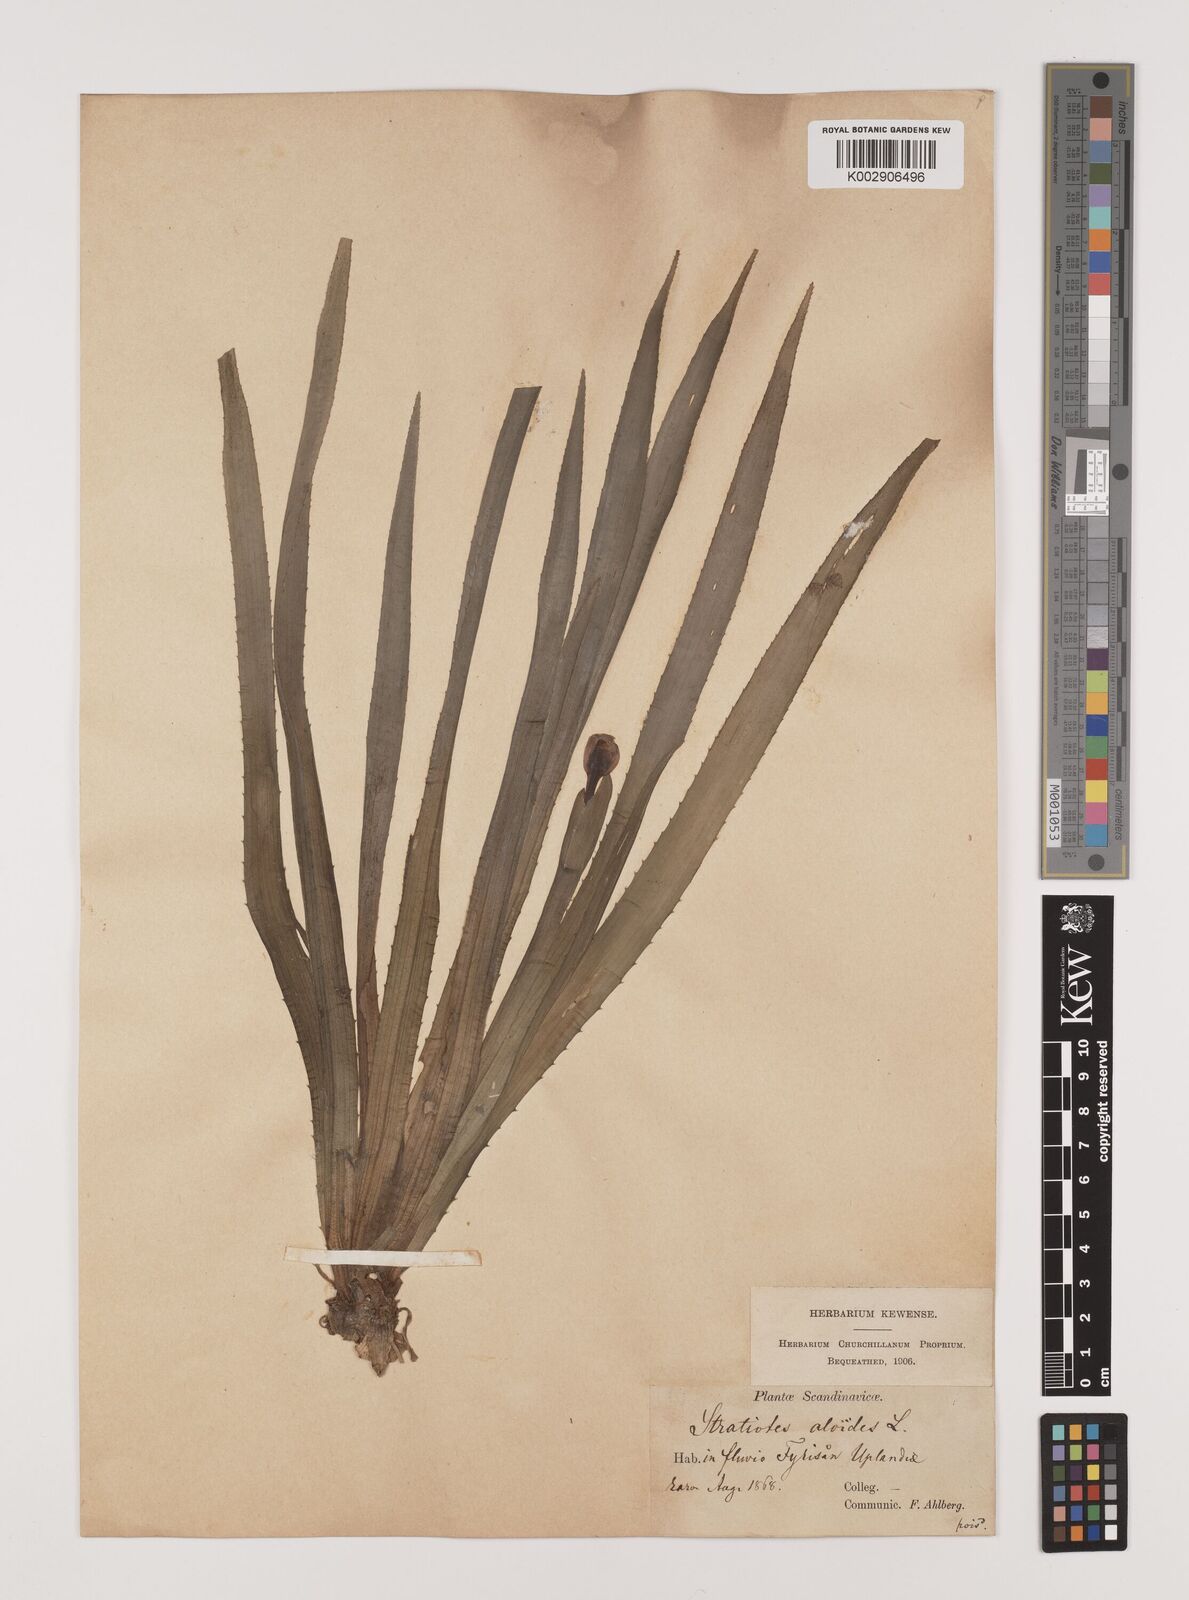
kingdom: Plantae
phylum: Tracheophyta
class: Liliopsida
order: Alismatales
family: Hydrocharitaceae
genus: Stratiotes
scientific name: Stratiotes aloides
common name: Water-soldier
